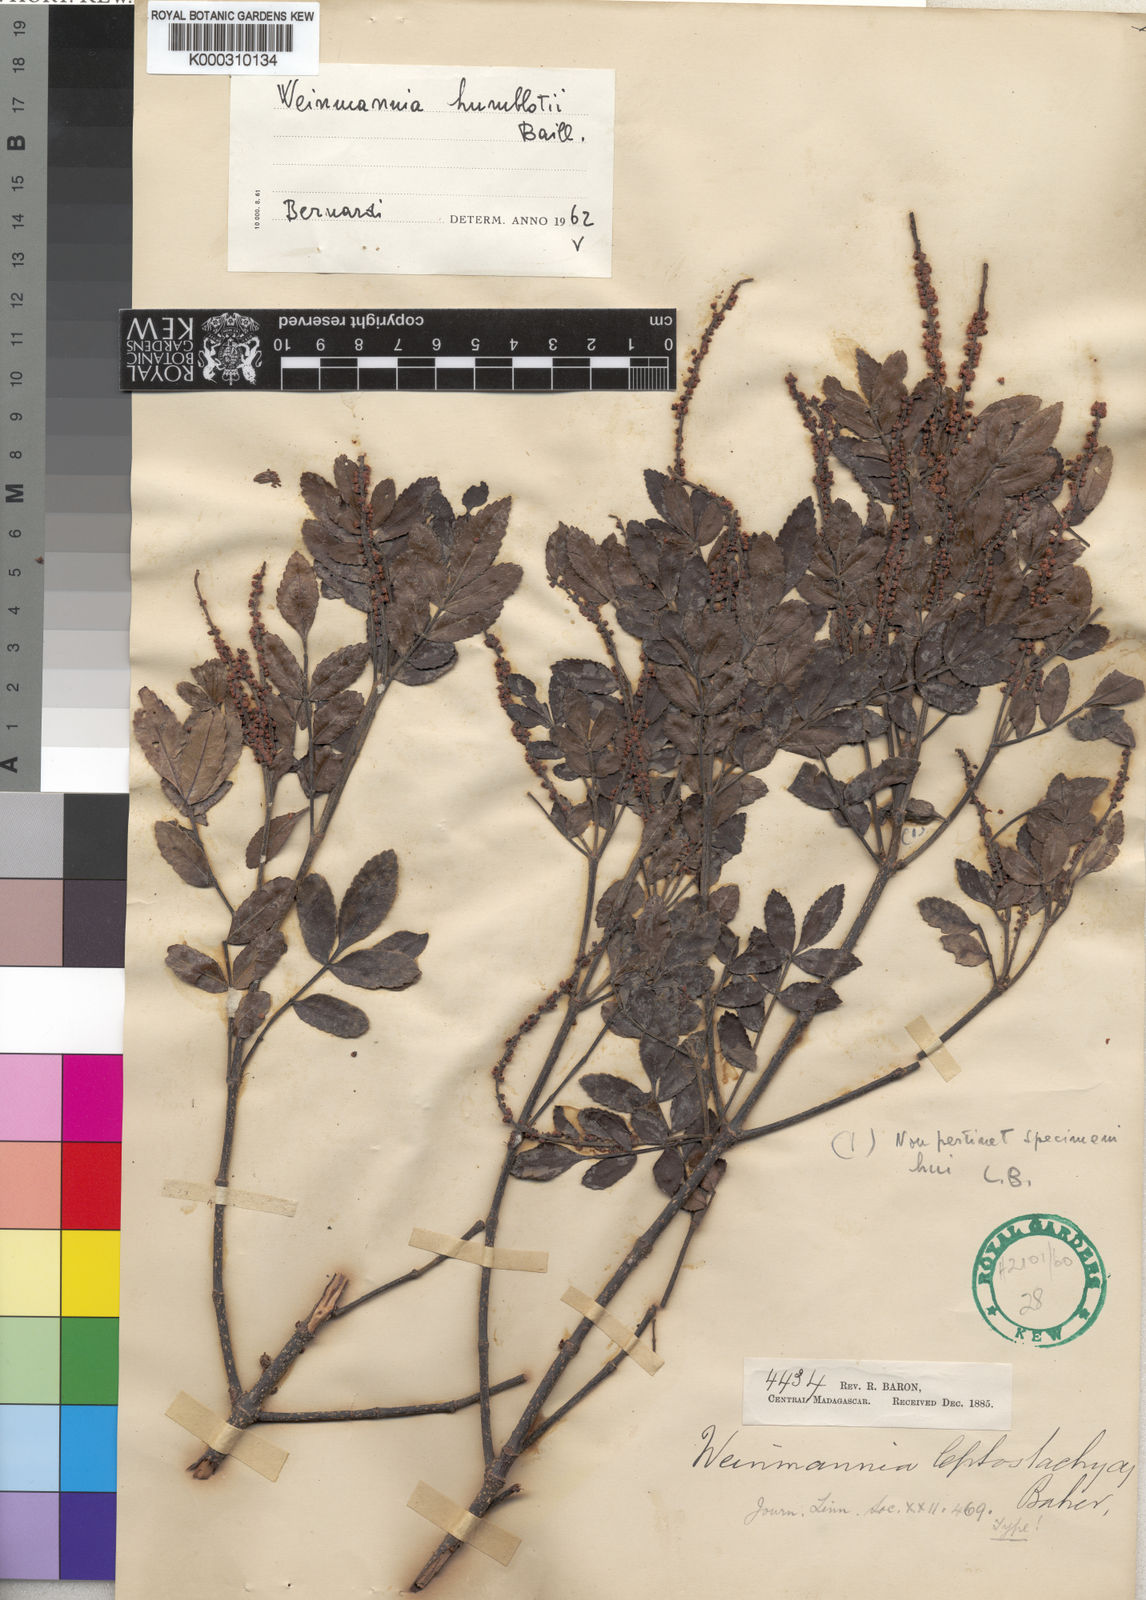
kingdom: Plantae
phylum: Tracheophyta
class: Magnoliopsida
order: Oxalidales
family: Cunoniaceae
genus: Pterophylla
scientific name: Pterophylla humblotii
